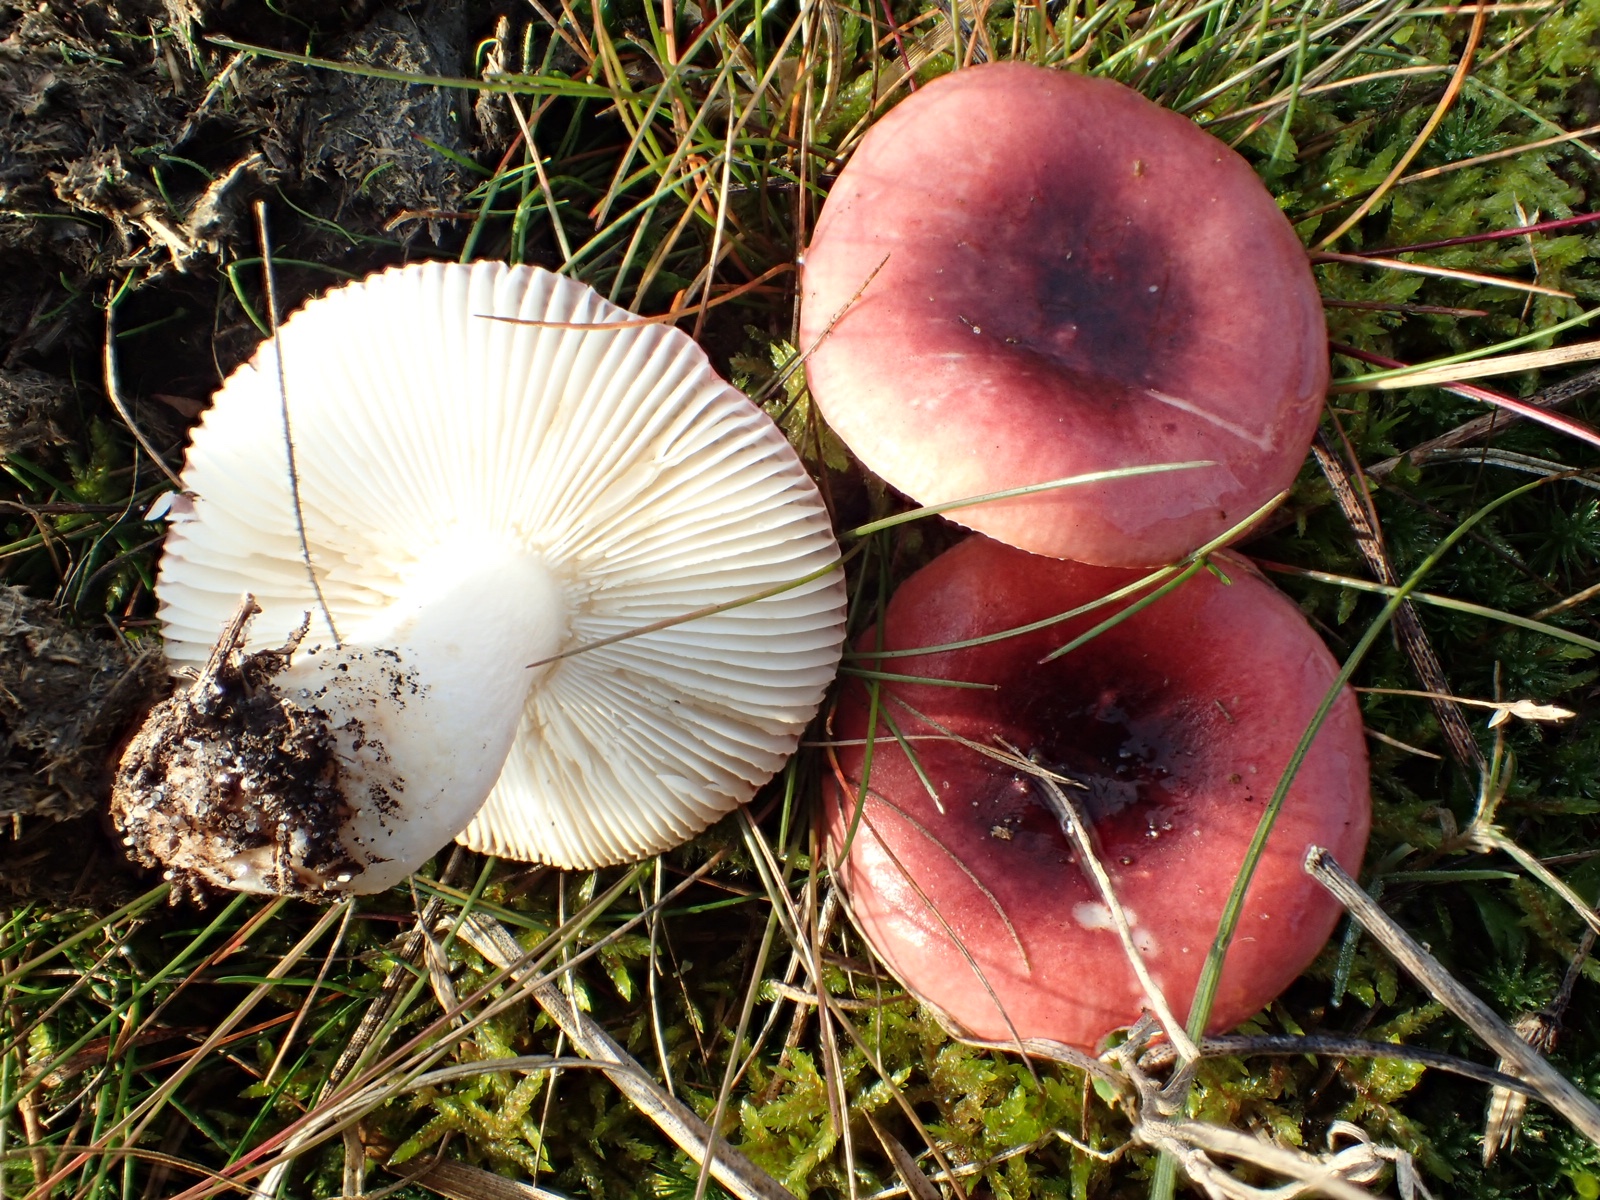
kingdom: Fungi
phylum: Basidiomycota
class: Agaricomycetes
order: Russulales
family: Russulaceae
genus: Russula
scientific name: Russula fragilis
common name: savbladet skørhat
